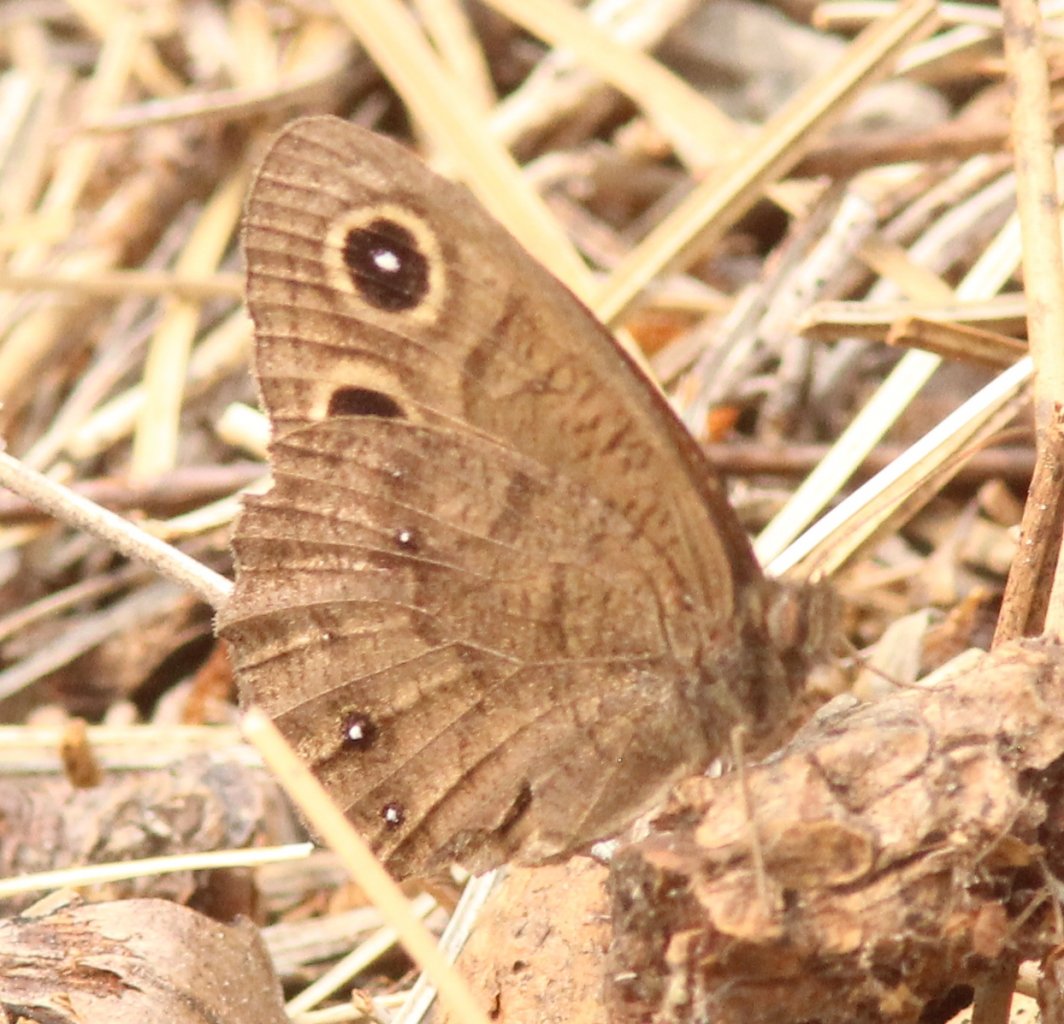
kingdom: Animalia
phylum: Arthropoda
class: Insecta
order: Lepidoptera
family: Nymphalidae
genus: Cercyonis
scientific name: Cercyonis pegala
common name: Common Wood-Nymph
